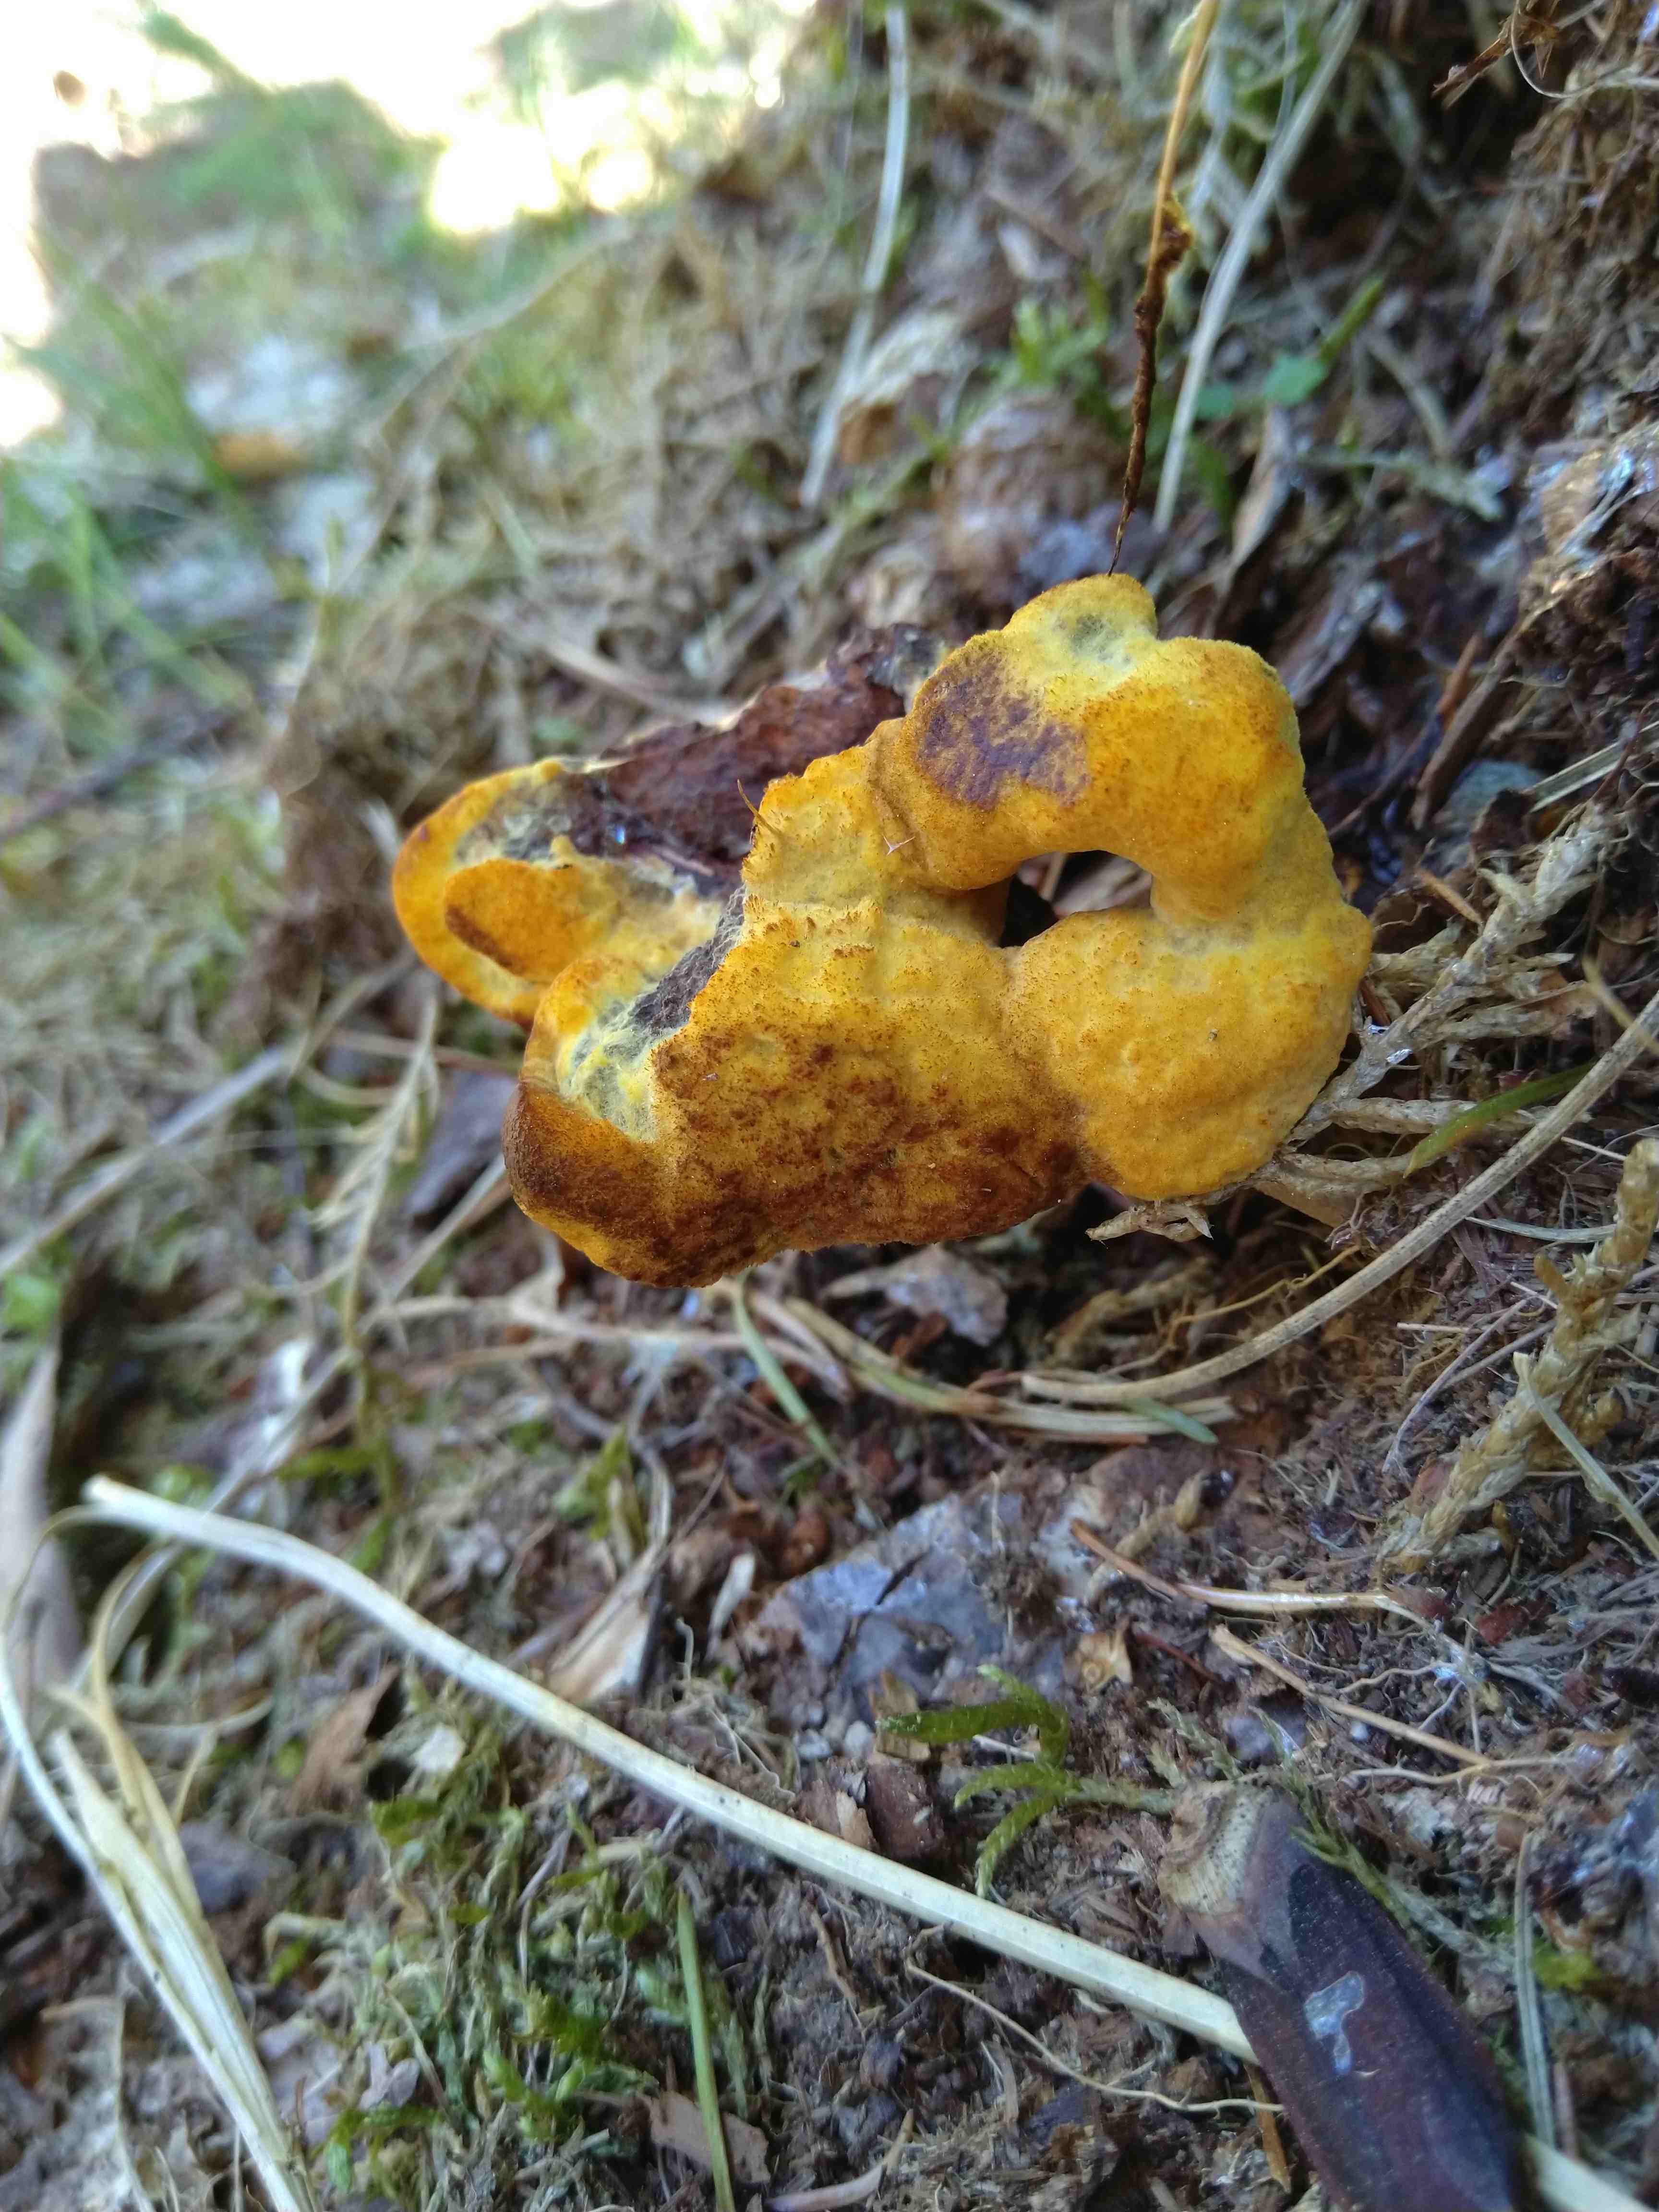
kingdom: Fungi
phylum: Basidiomycota
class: Agaricomycetes
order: Polyporales
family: Laetiporaceae
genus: Phaeolus
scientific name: Phaeolus schweinitzii
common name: brunporesvamp
